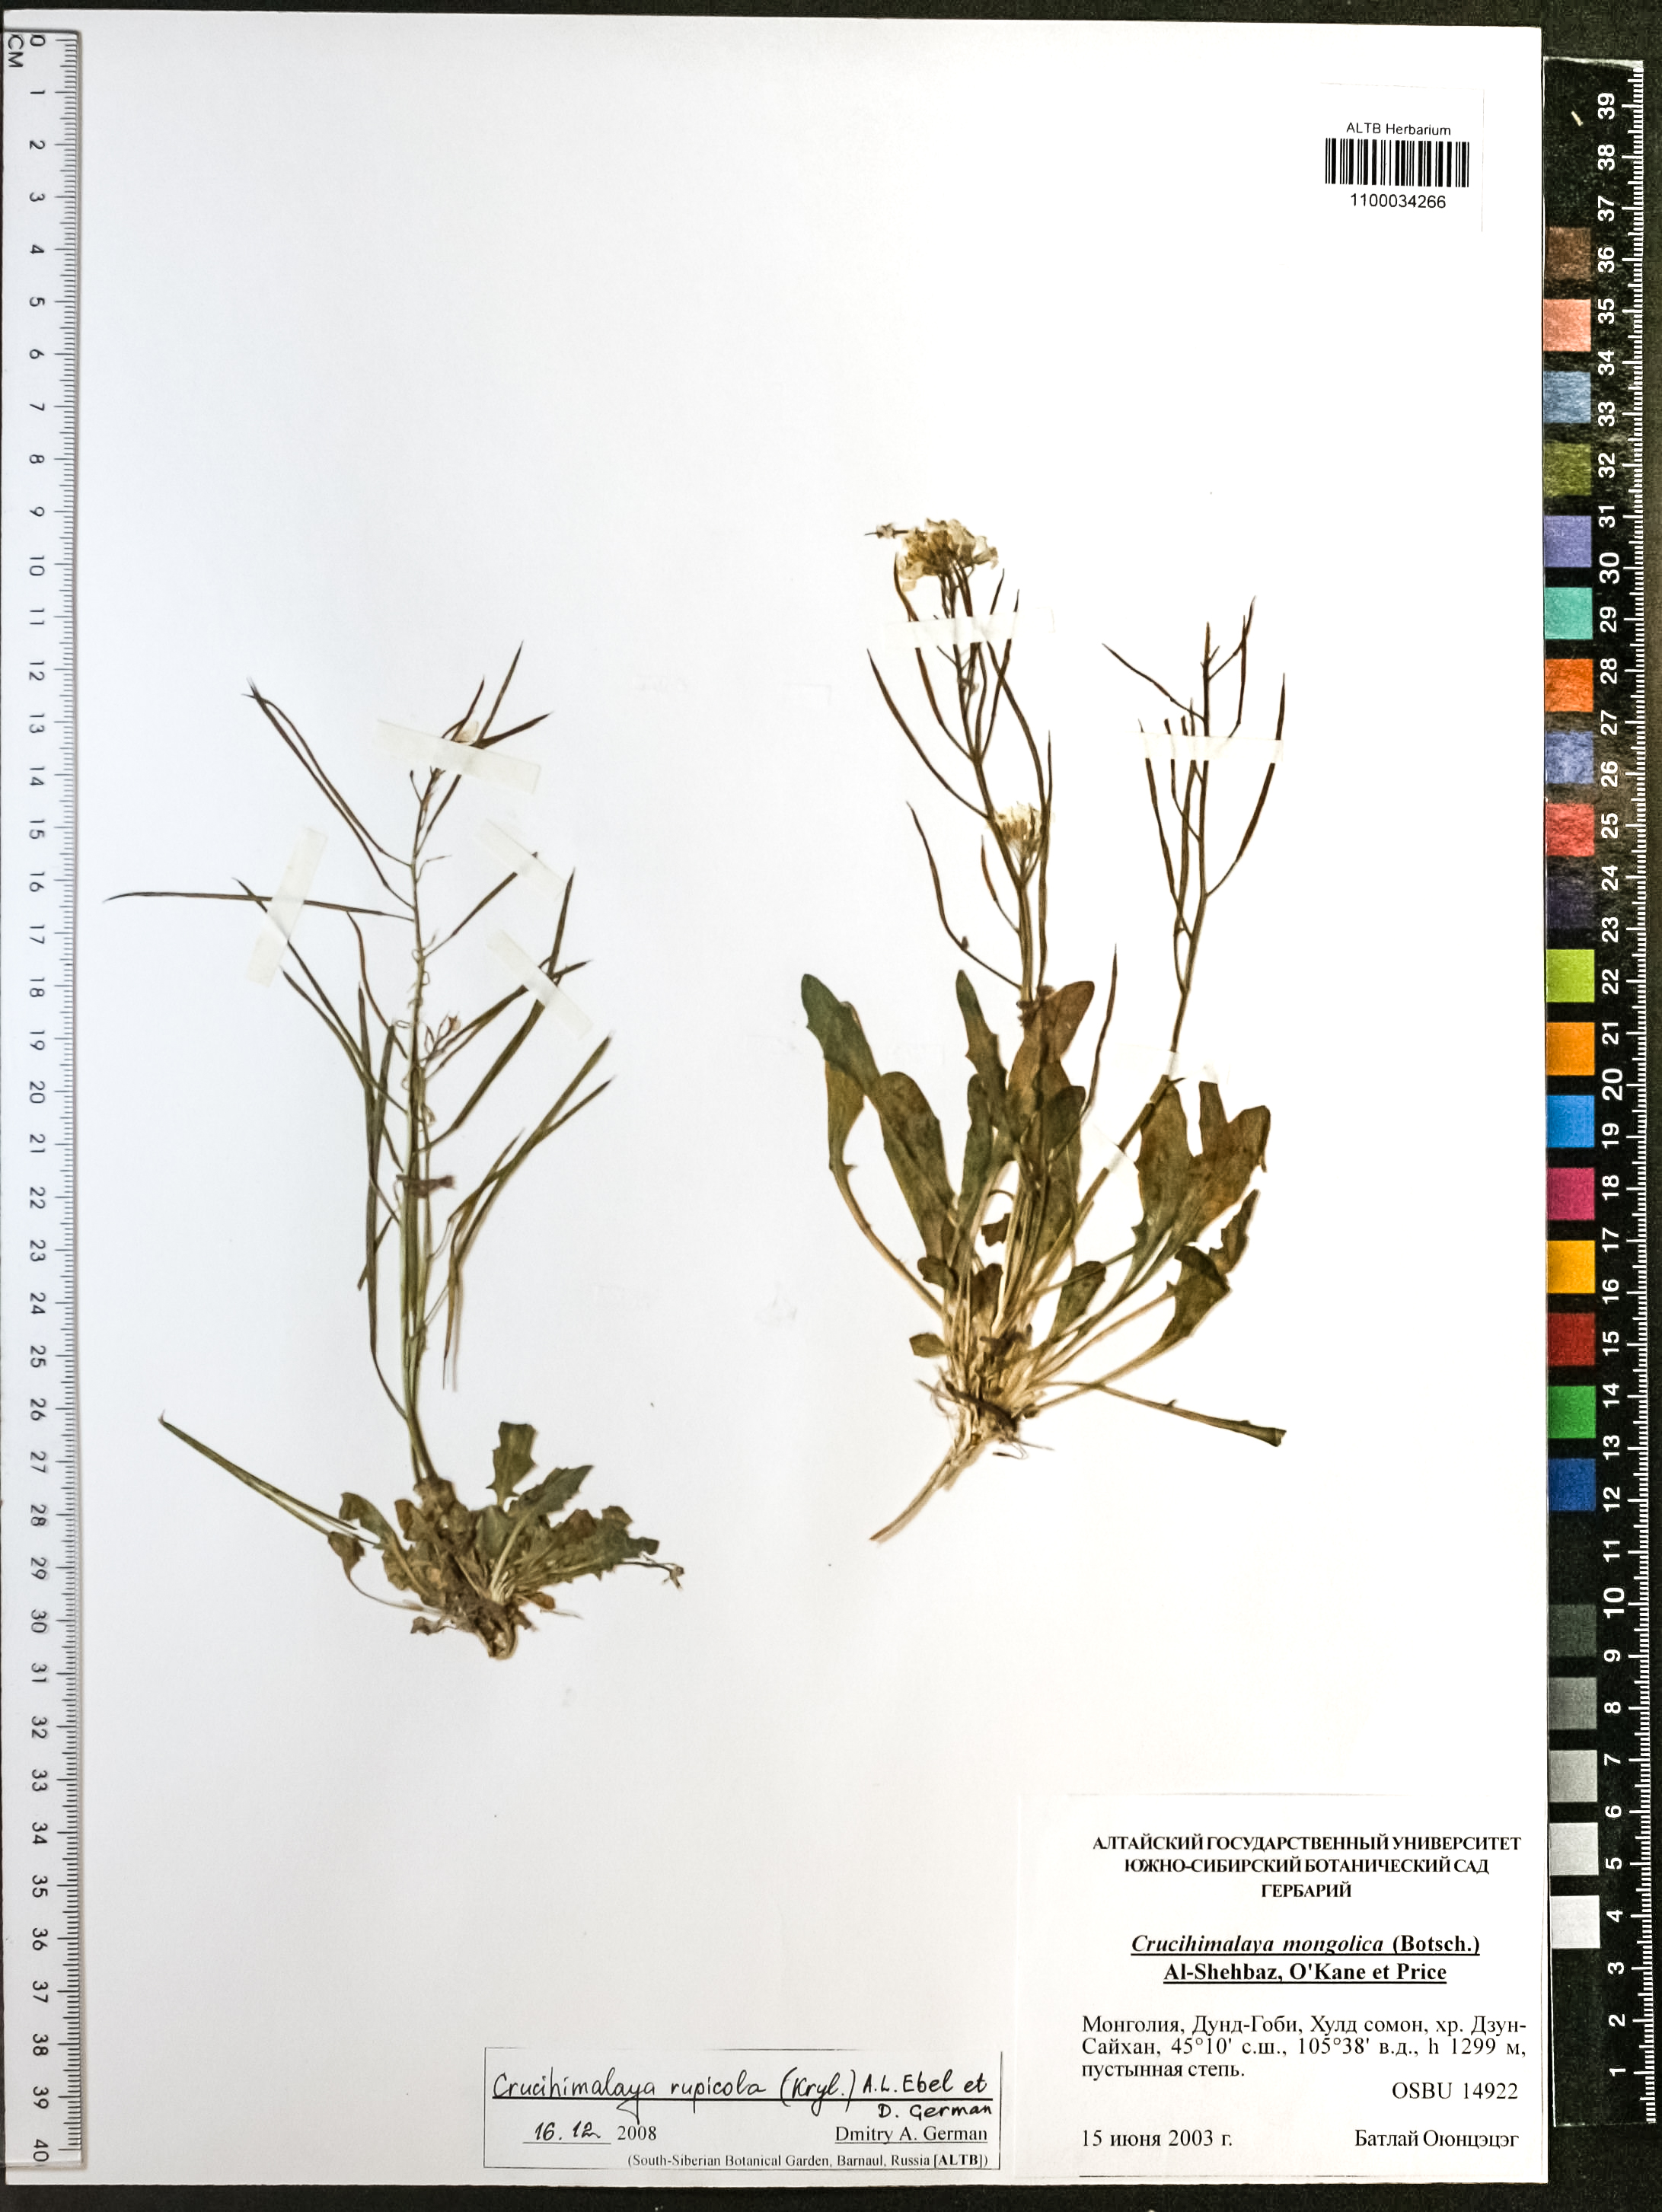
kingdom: Plantae
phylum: Tracheophyta
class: Magnoliopsida
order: Brassicales
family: Brassicaceae
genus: Crucihimalaya
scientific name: Crucihimalaya rupicola
